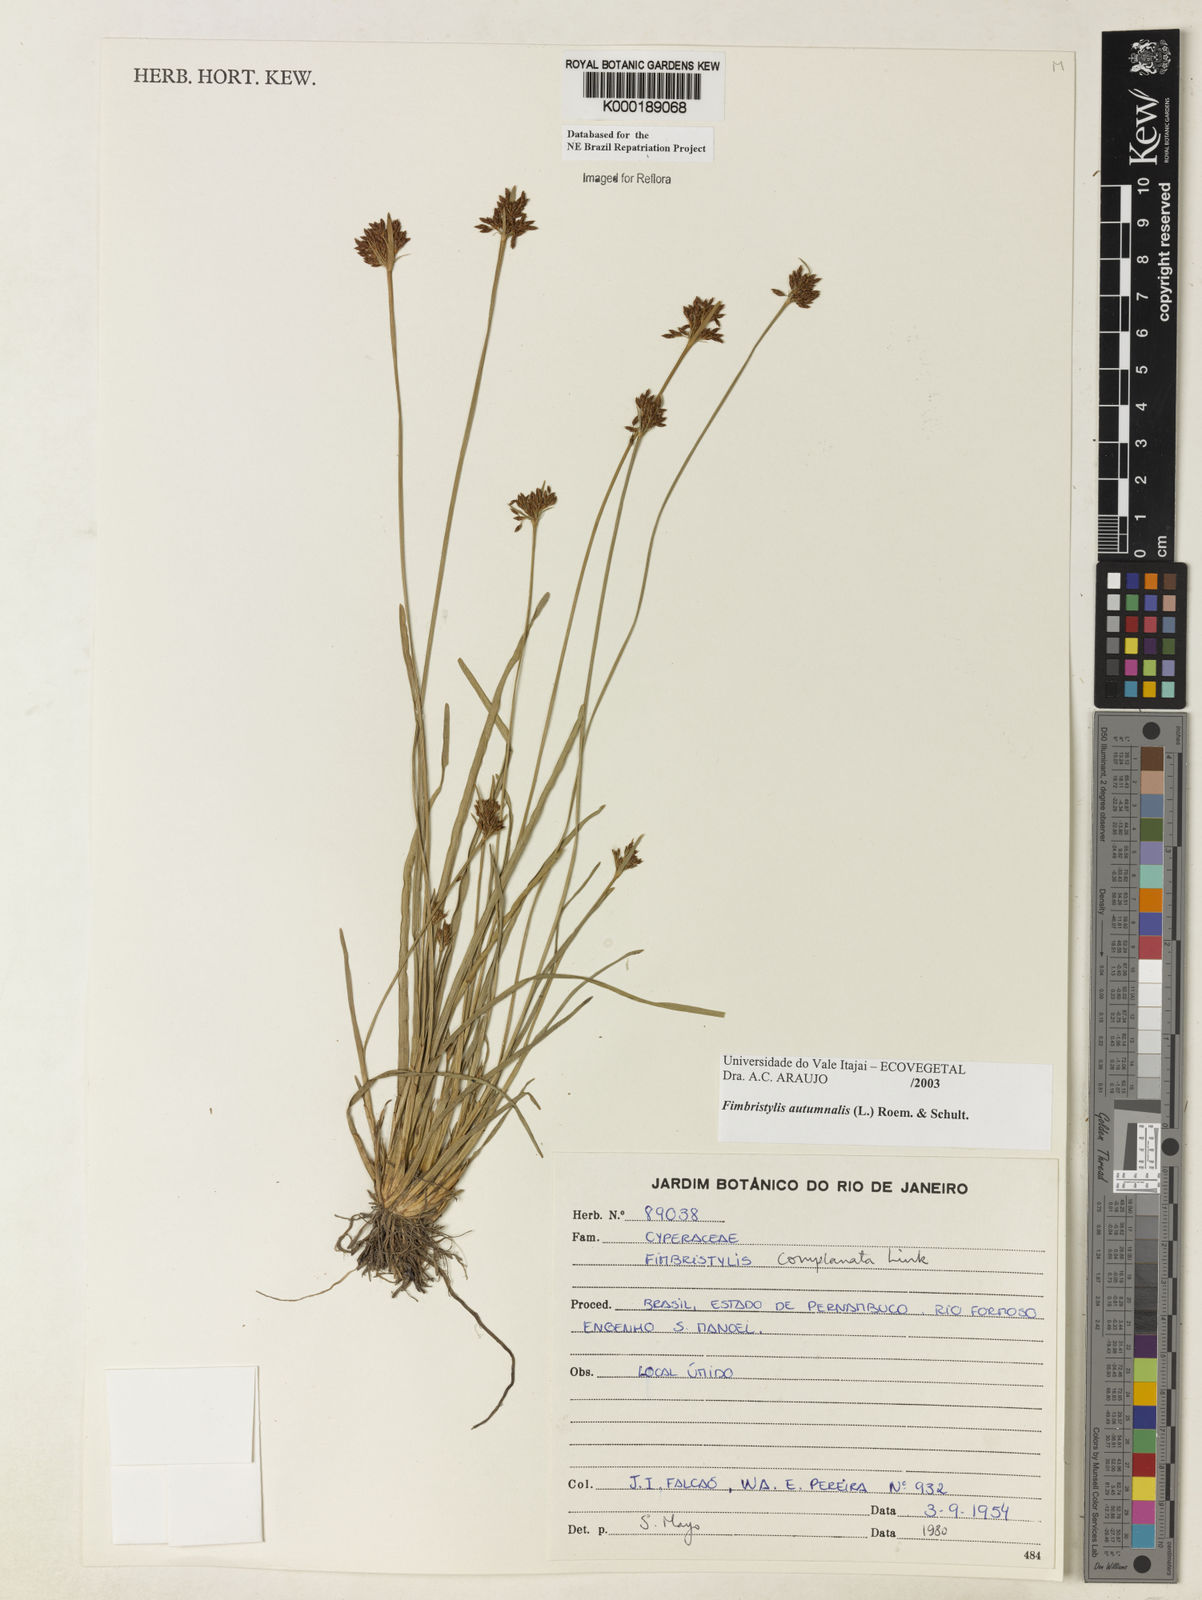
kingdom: Plantae
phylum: Tracheophyta
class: Liliopsida
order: Poales
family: Cyperaceae
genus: Fimbristylis
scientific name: Fimbristylis autumnalis
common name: Slender fimbristylis
